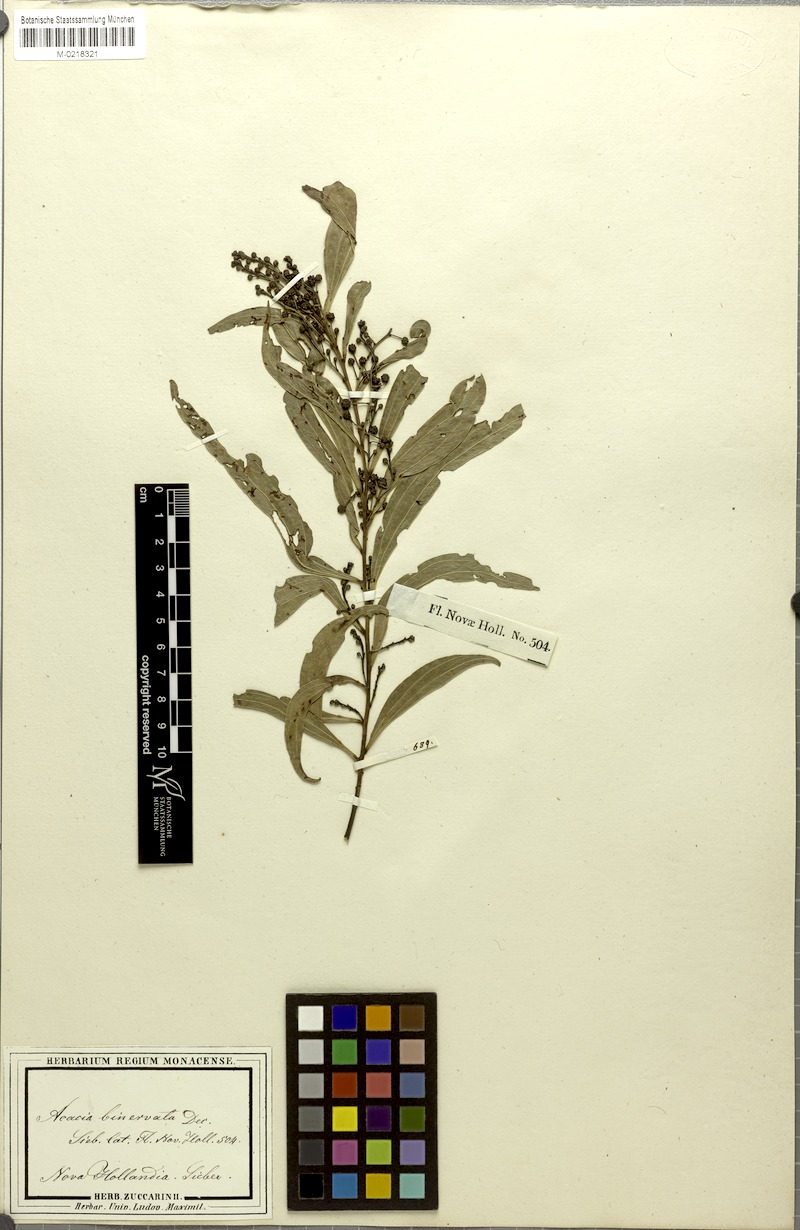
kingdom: Plantae
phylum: Tracheophyta
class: Magnoliopsida
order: Fabales
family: Fabaceae
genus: Acacia
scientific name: Acacia binervata
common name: Two-veined hickory
